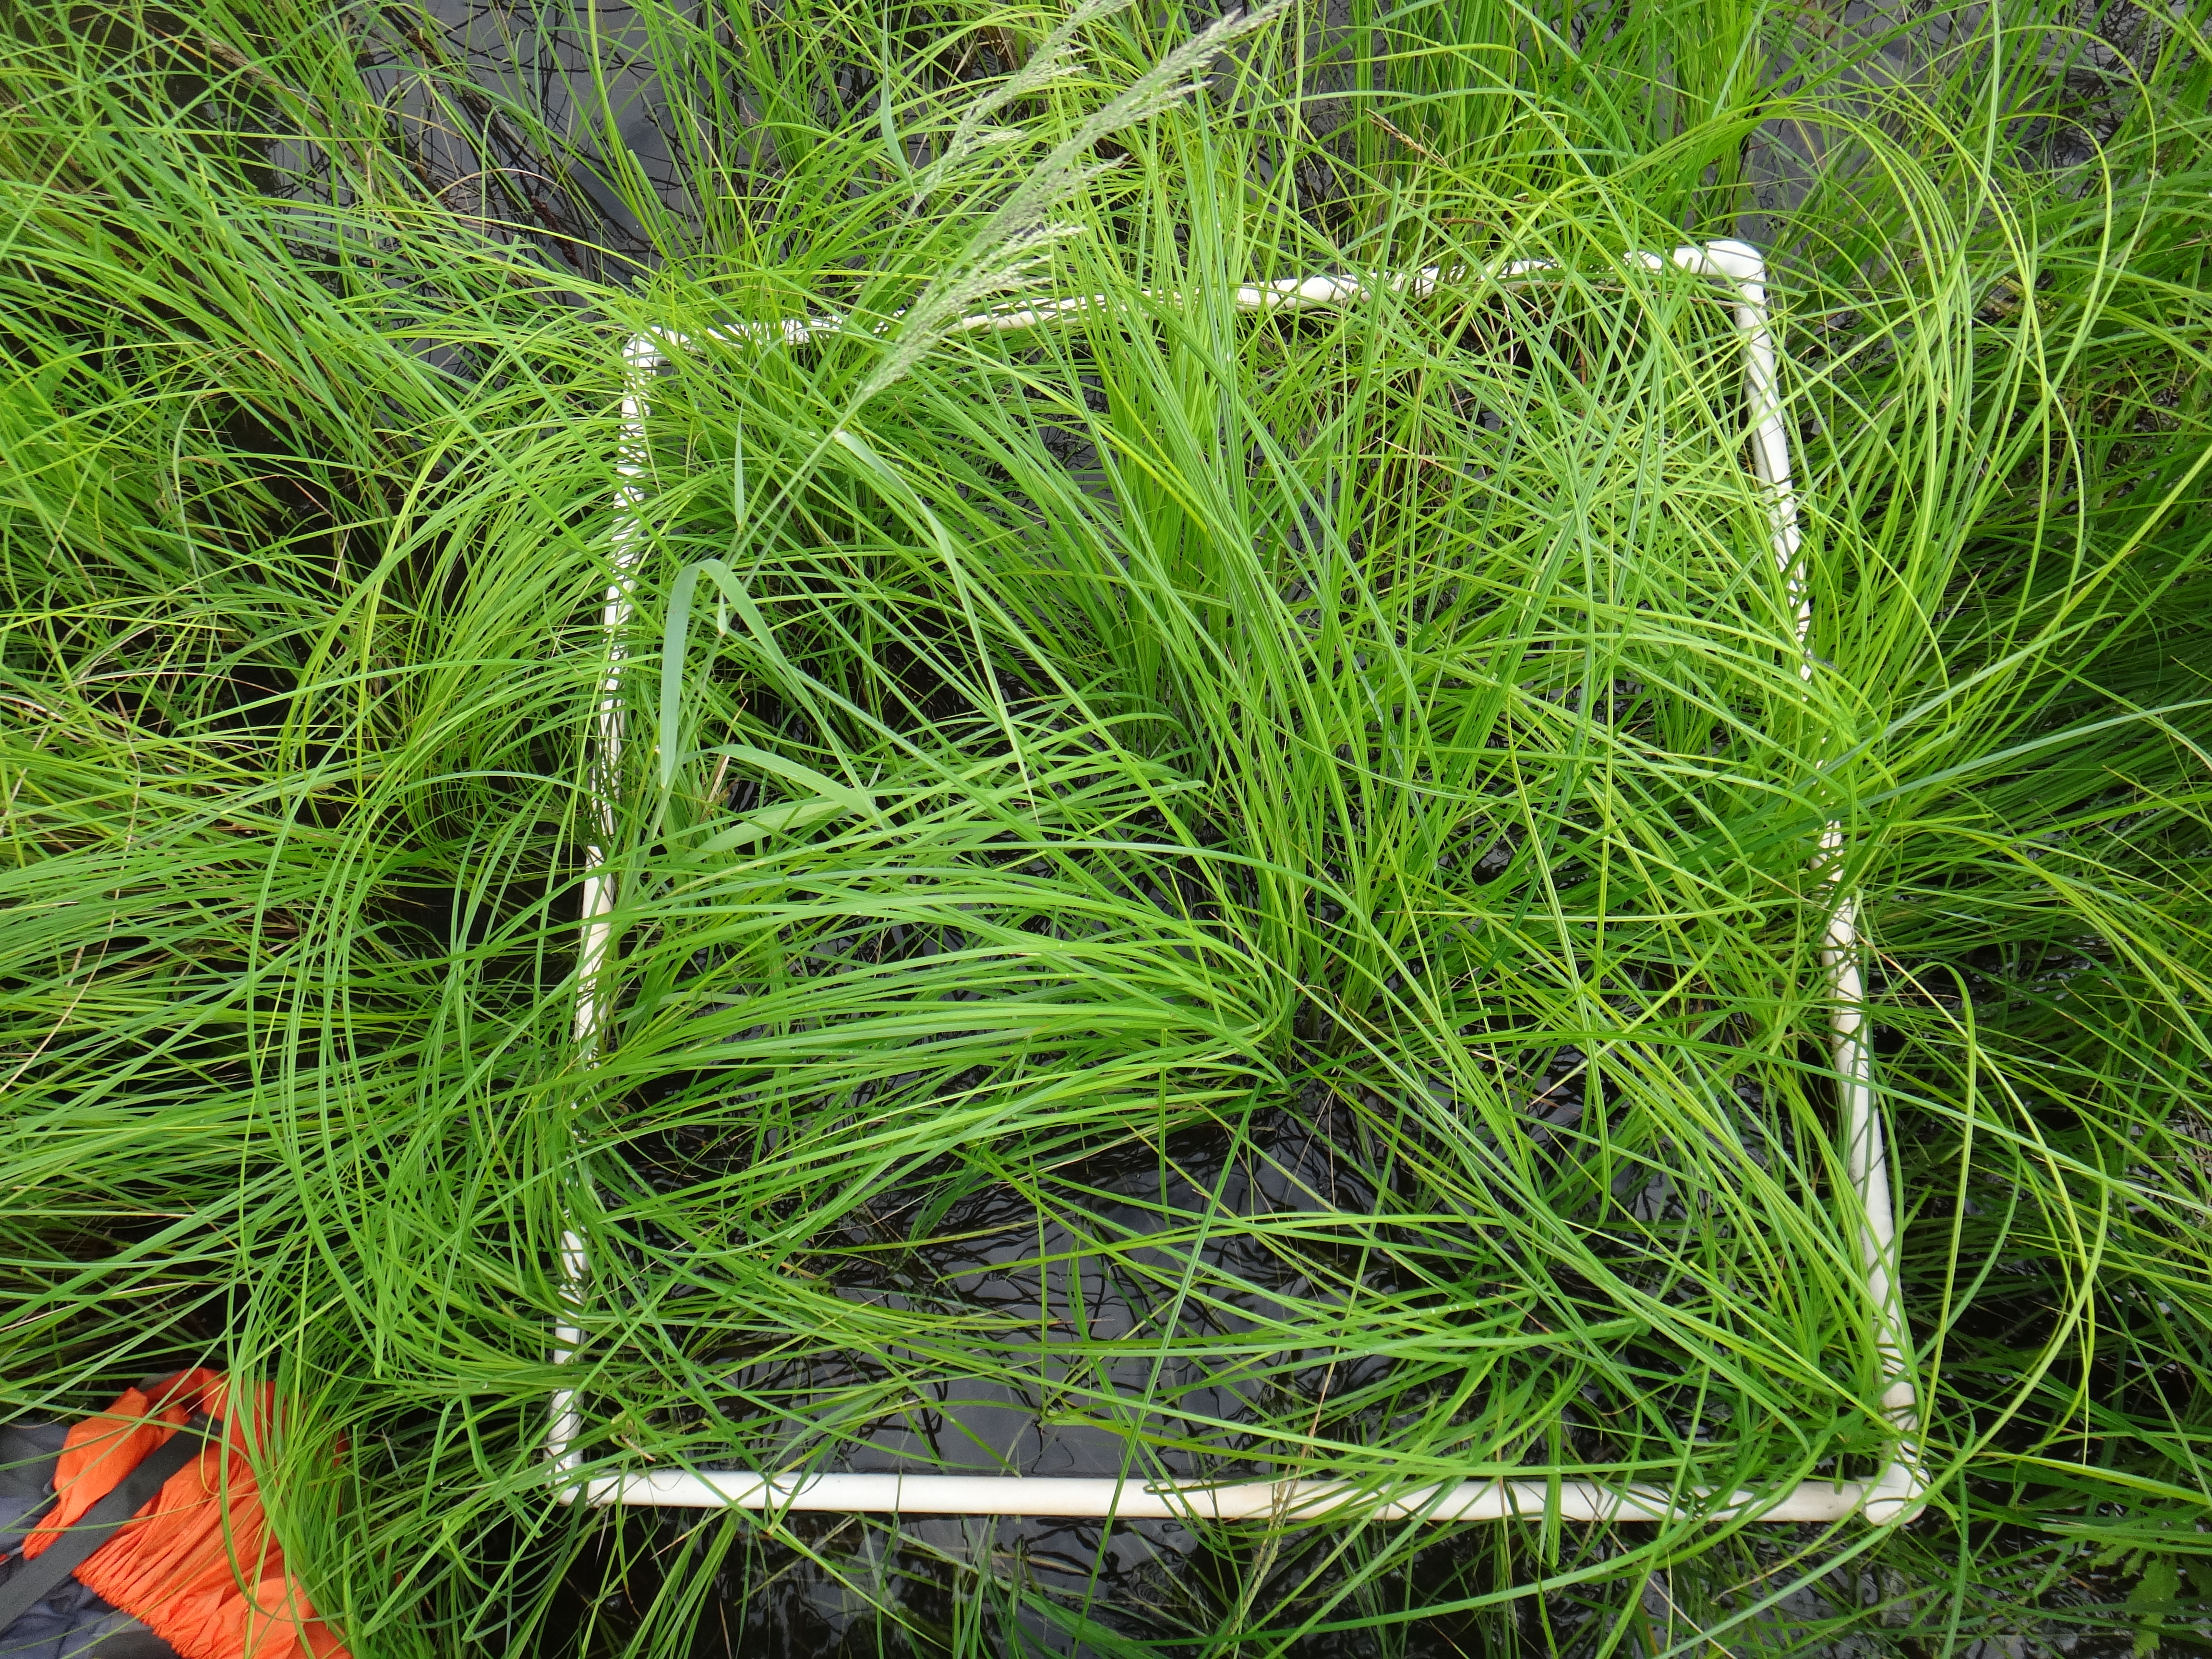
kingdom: Plantae
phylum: Tracheophyta
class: Magnoliopsida
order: Rosales
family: Rosaceae
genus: Rosa
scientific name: Rosa palustris
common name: Swamp rose
